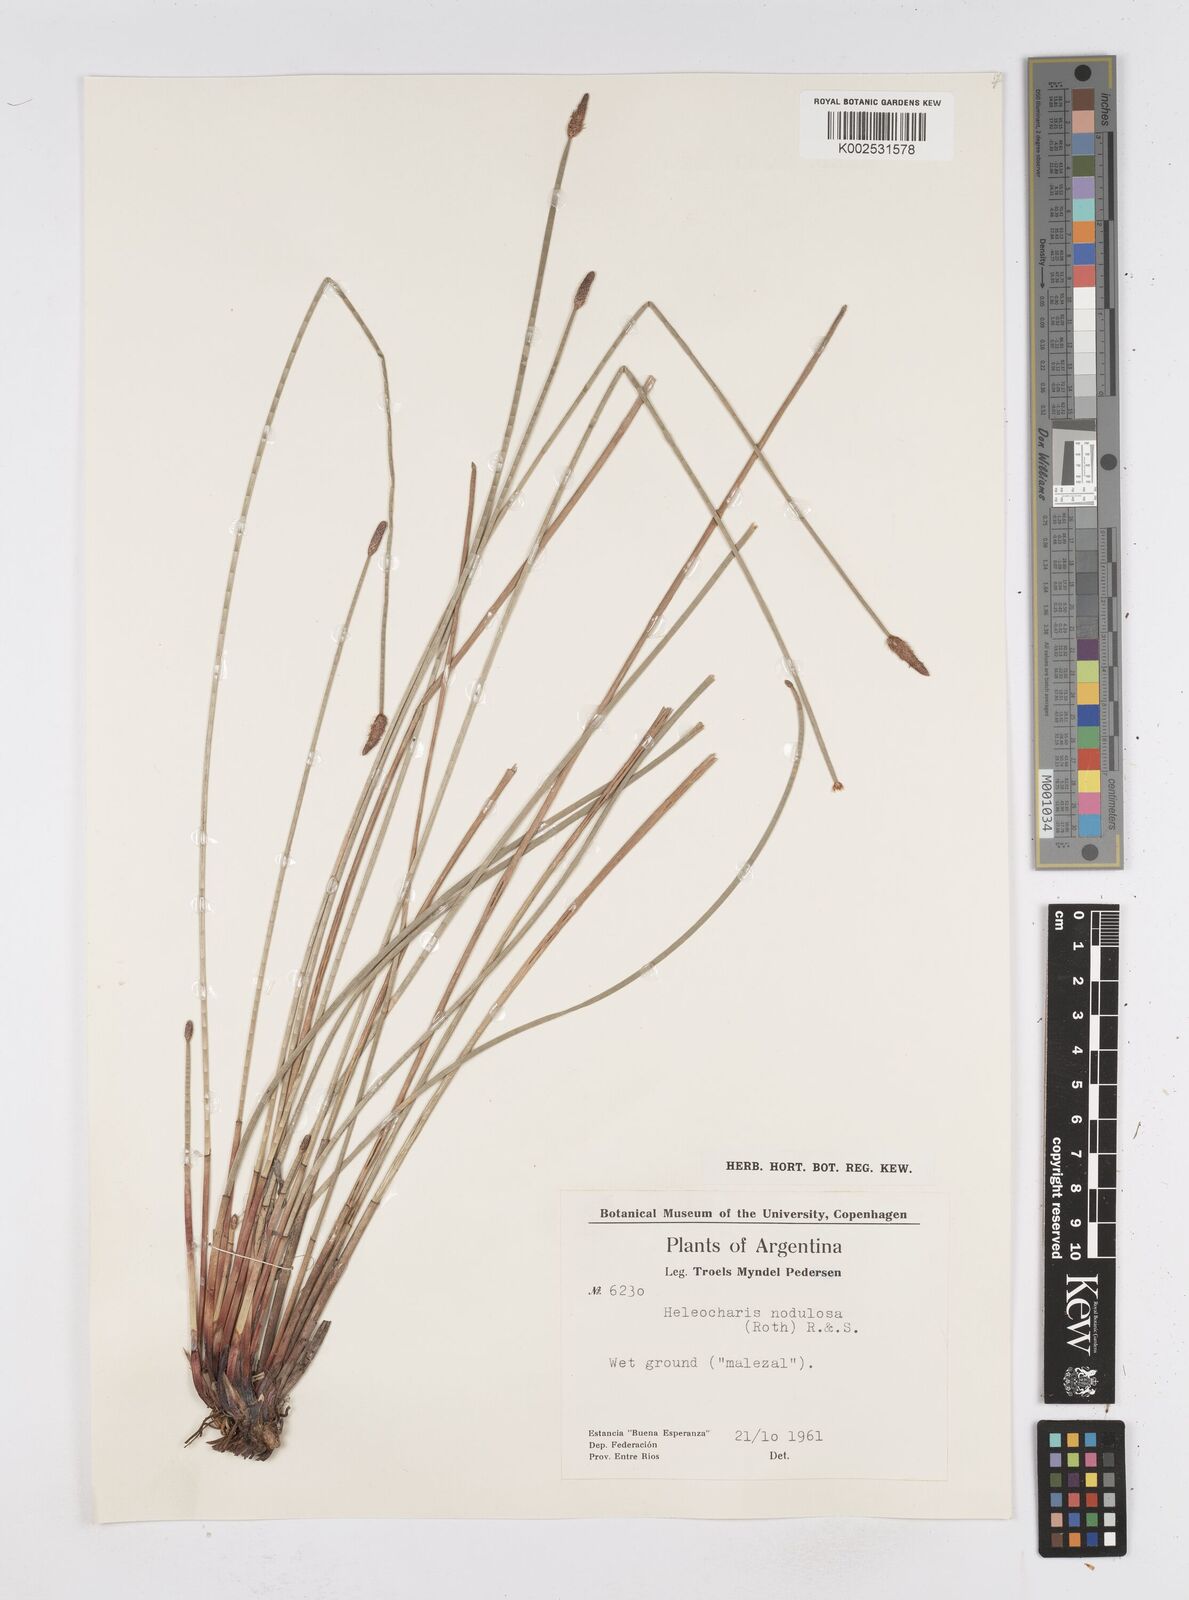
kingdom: Plantae
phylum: Tracheophyta
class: Liliopsida
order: Poales
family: Cyperaceae
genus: Eleocharis
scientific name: Eleocharis montana
